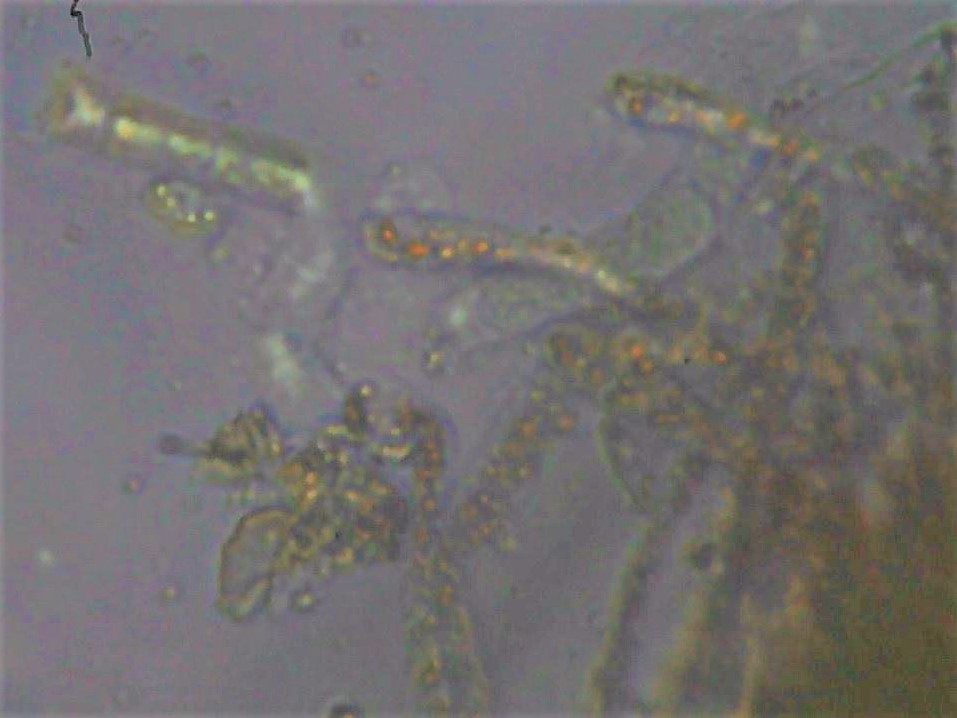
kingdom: Fungi
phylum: Ascomycota
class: Pezizomycetes
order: Pezizales
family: Pyronemataceae
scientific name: Pyronemataceae
